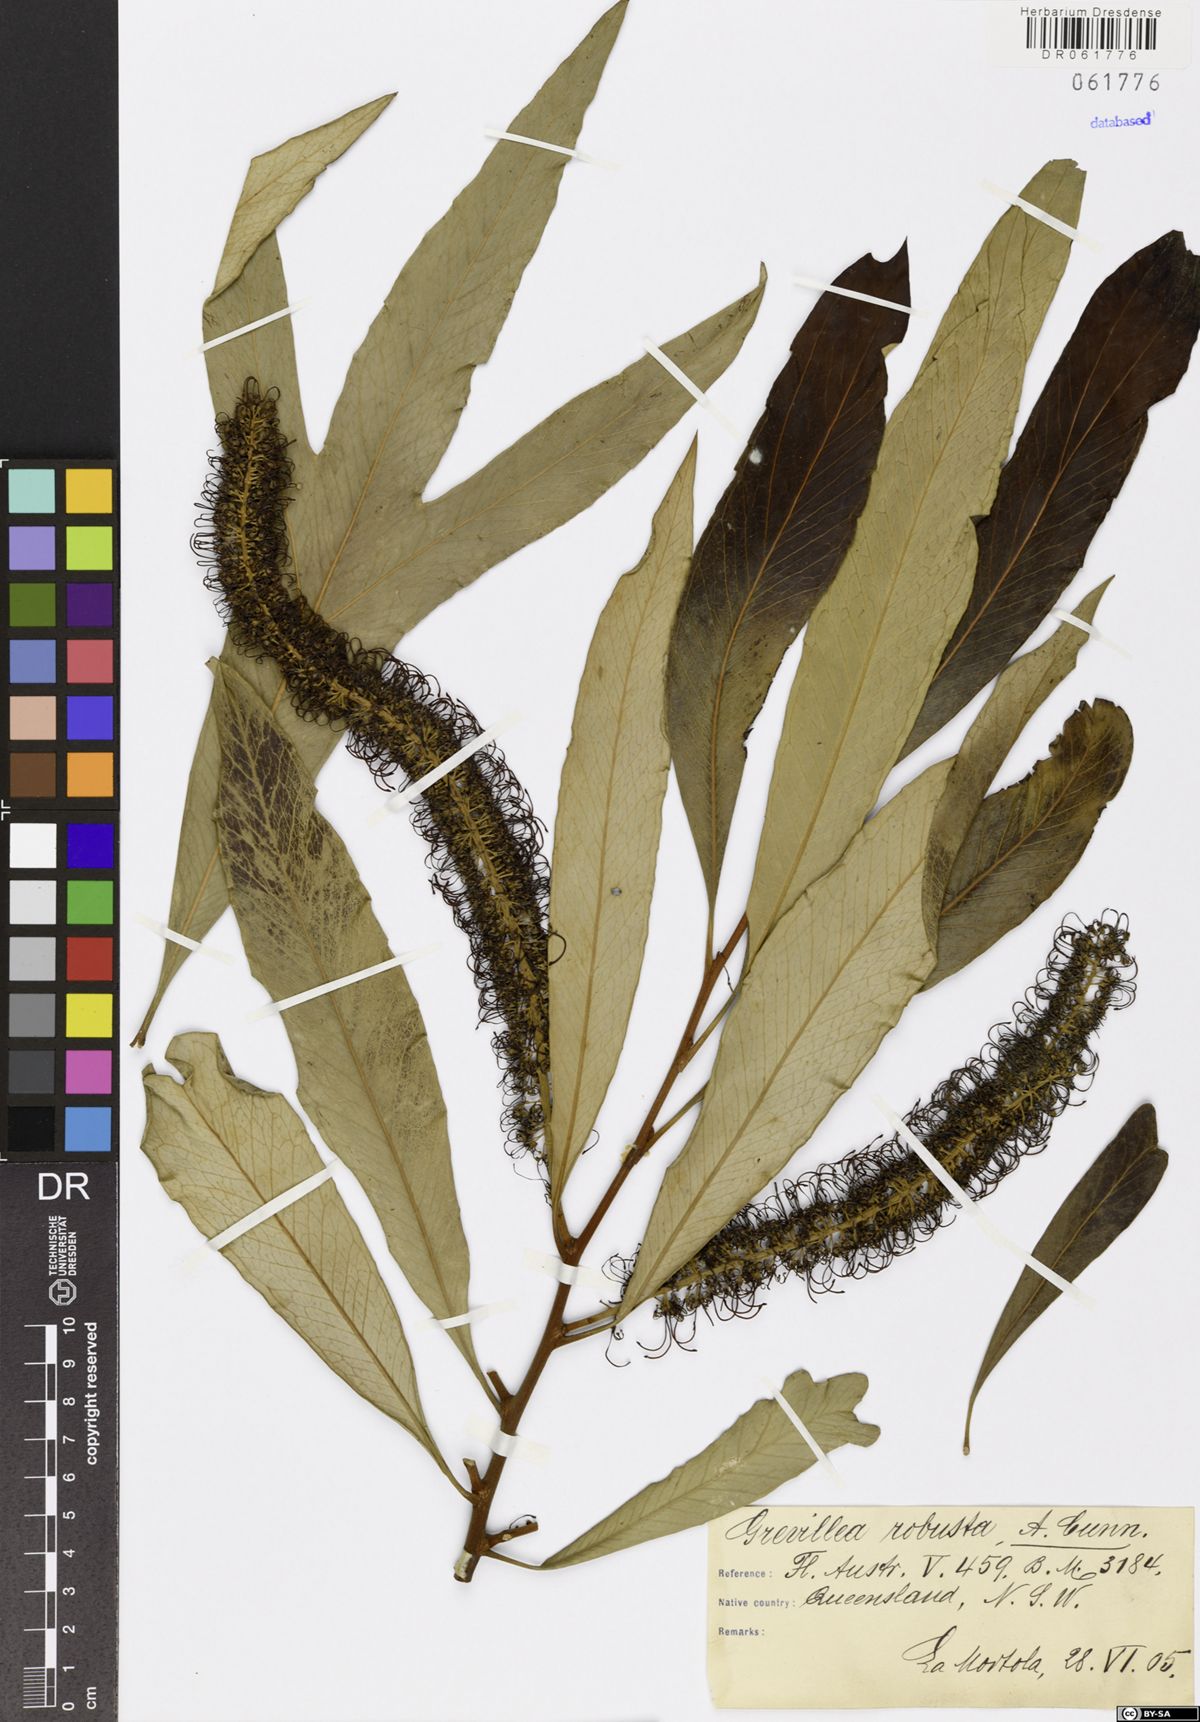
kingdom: Plantae
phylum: Tracheophyta
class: Magnoliopsida
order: Proteales
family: Proteaceae
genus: Grevillea
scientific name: Grevillea robusta
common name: Silkoak
